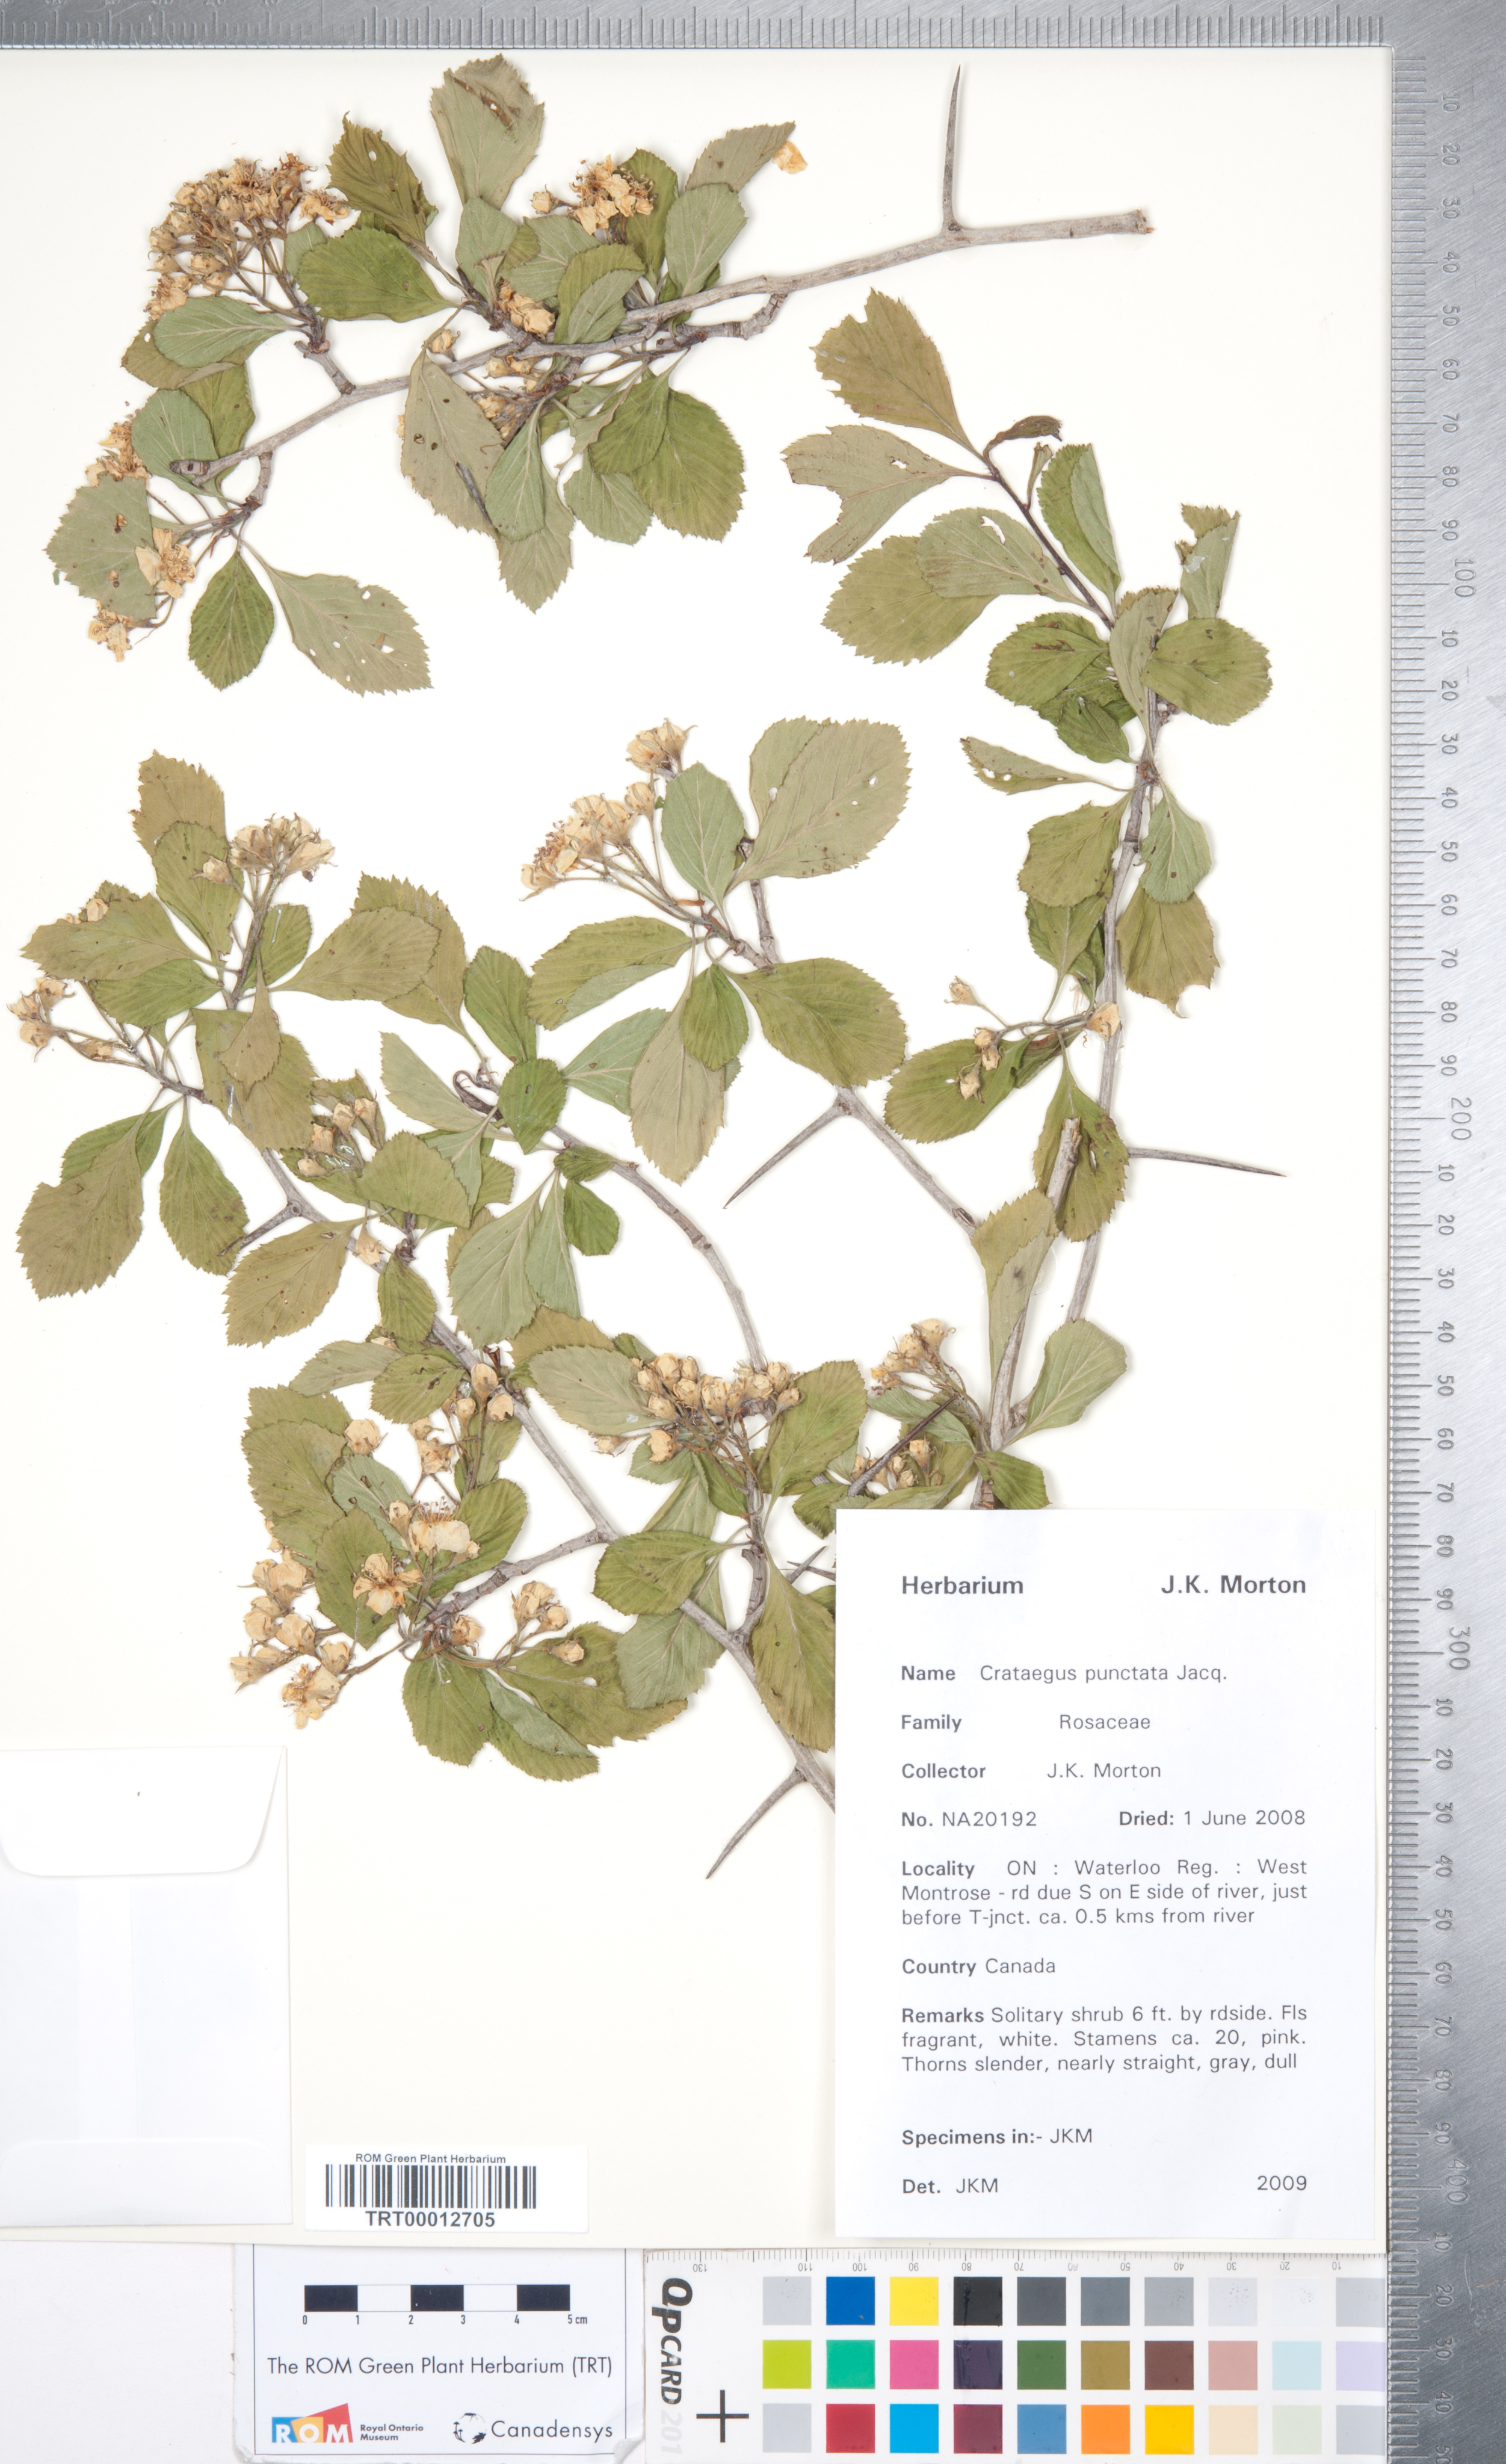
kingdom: Plantae
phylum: Tracheophyta
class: Magnoliopsida
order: Rosales
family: Rosaceae
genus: Crataegus
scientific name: Crataegus punctata
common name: Dotted hawthorn
